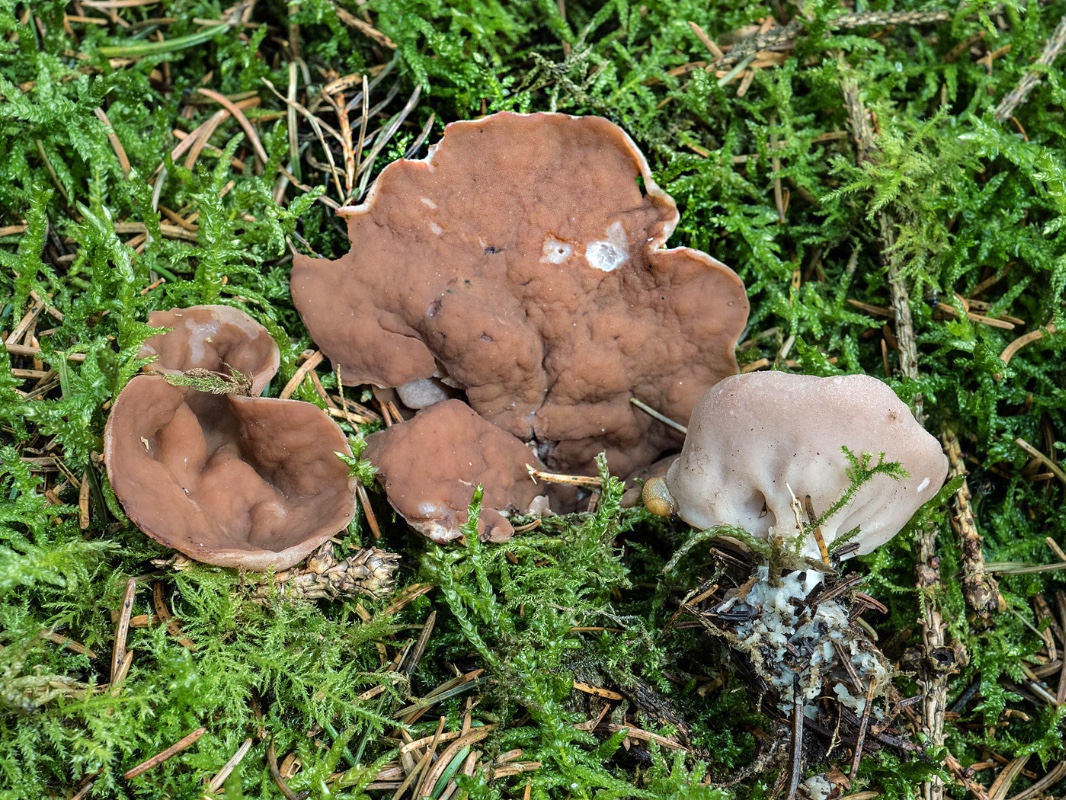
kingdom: Fungi
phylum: Ascomycota
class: Pezizomycetes
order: Pezizales
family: Discinaceae
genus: Discina
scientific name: Discina ancilis
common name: udbredt stenmorkel
